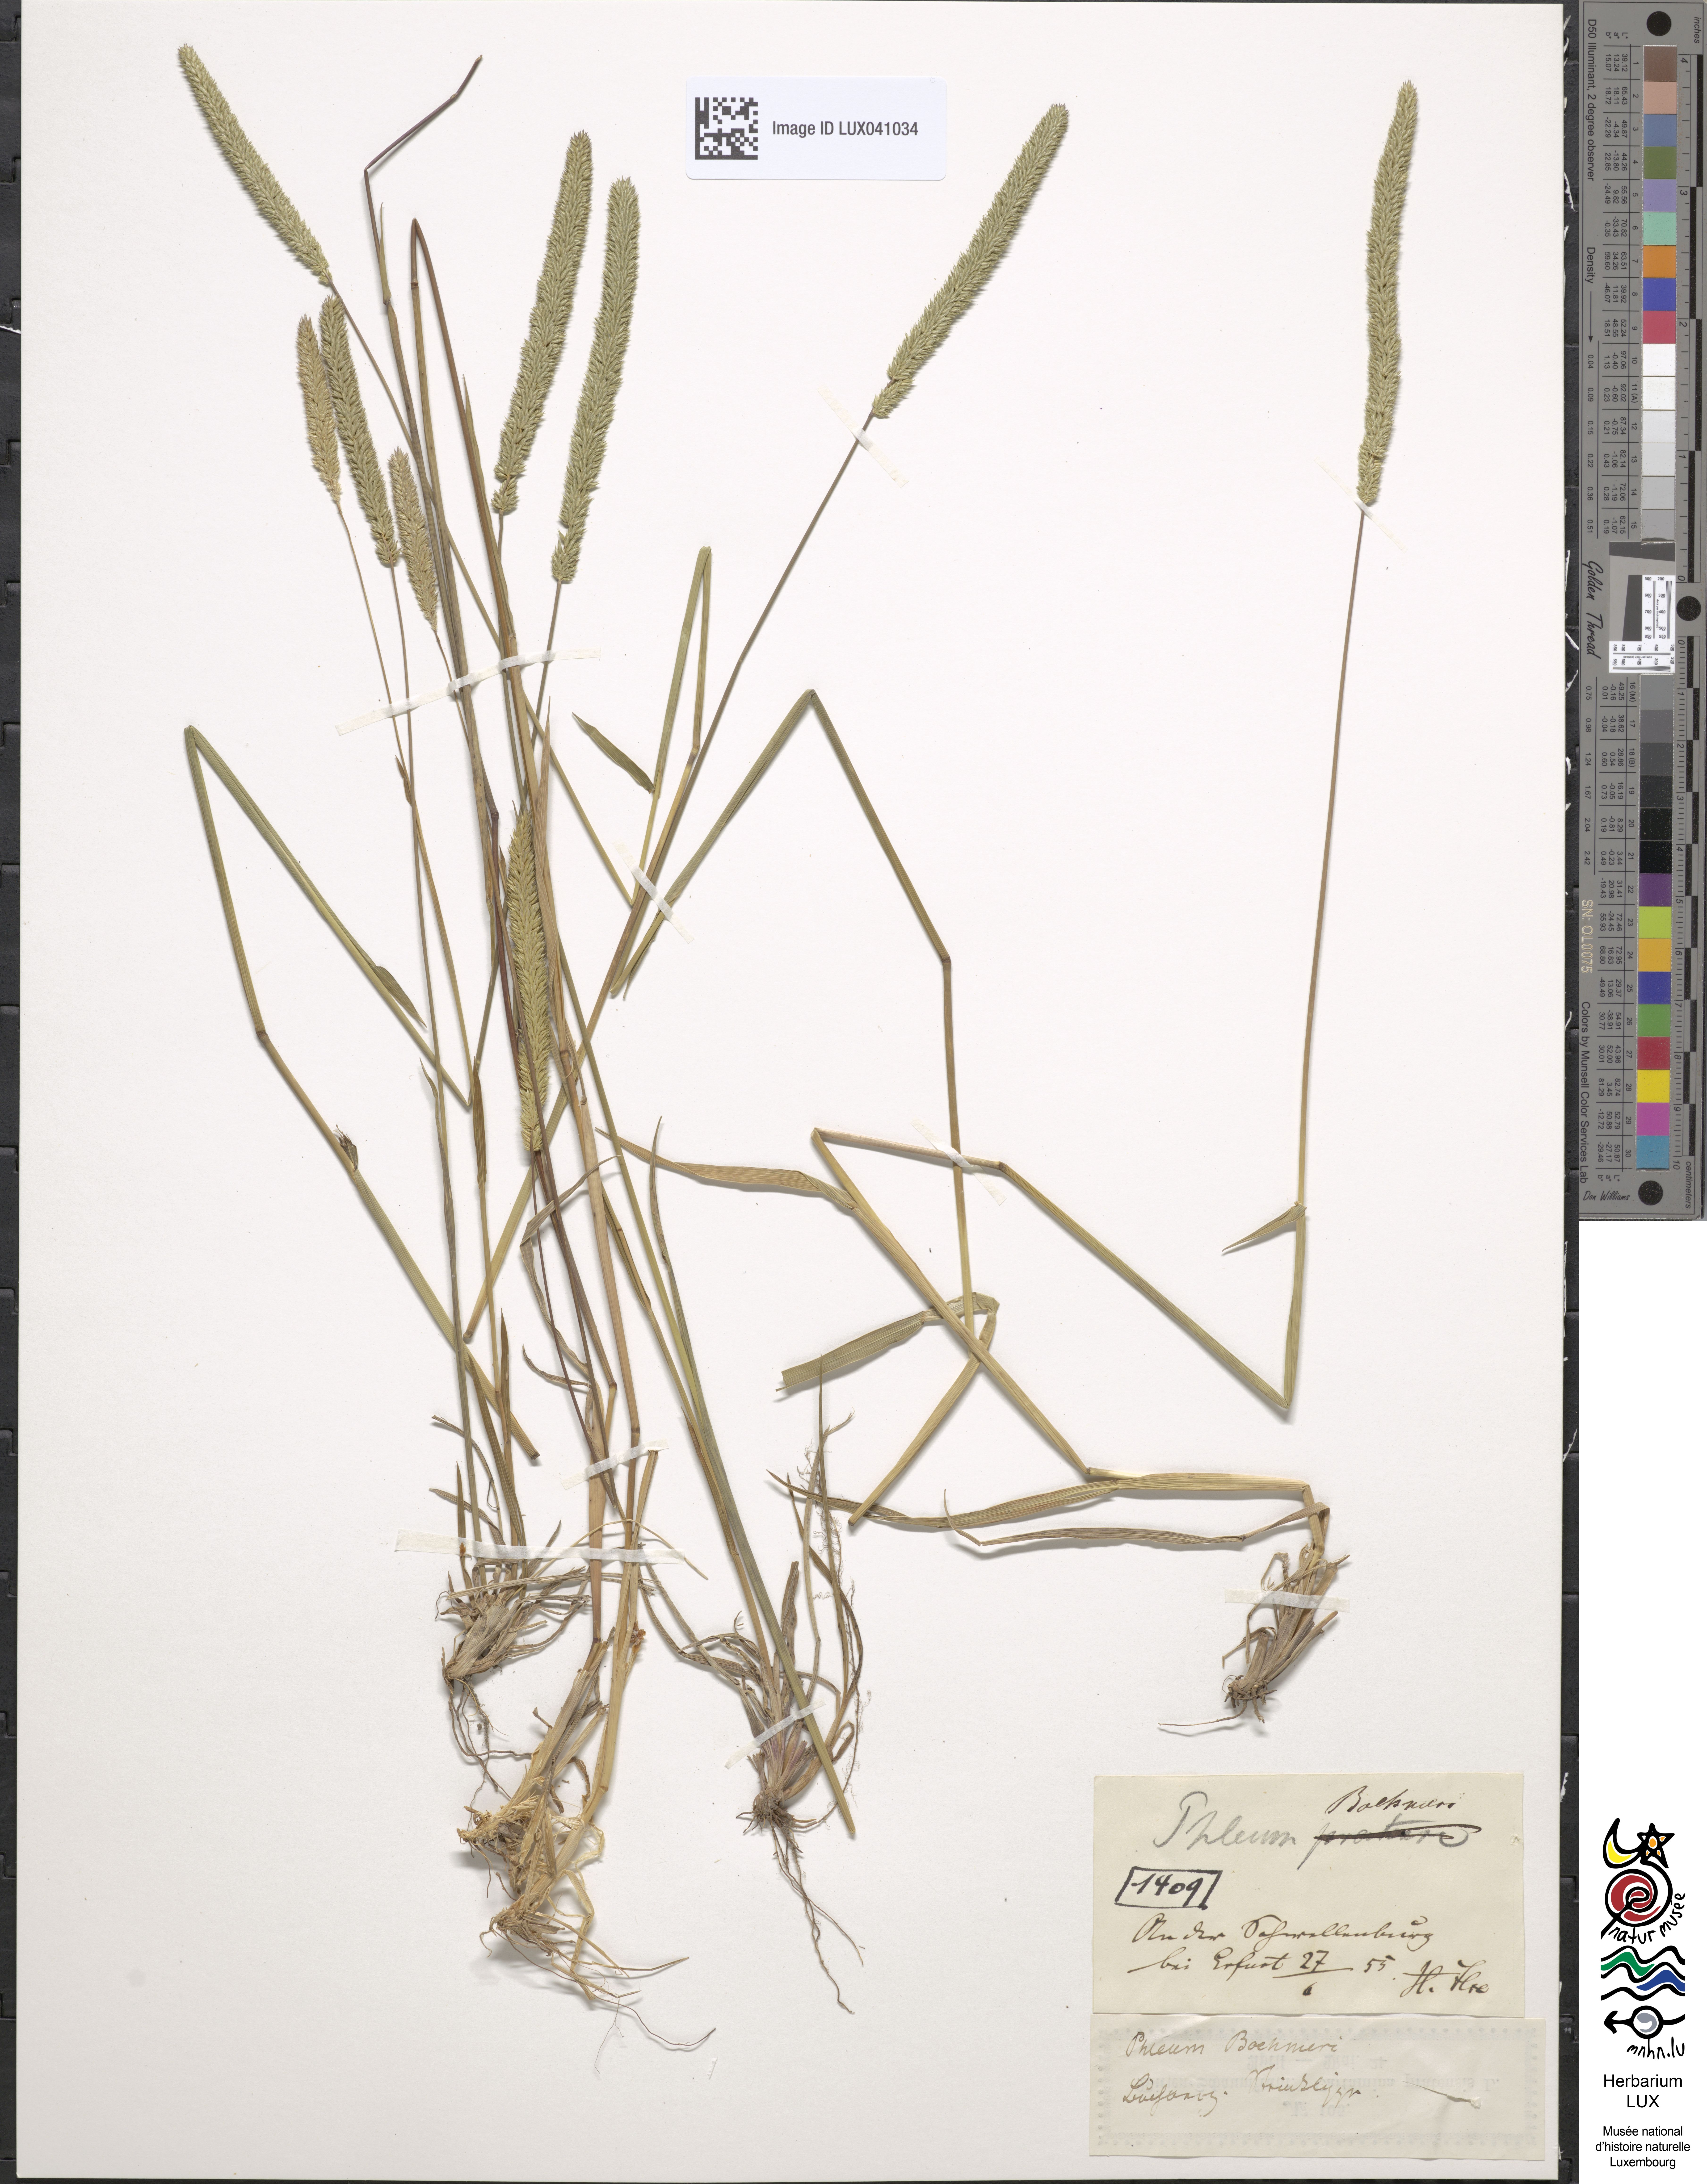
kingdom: Plantae
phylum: Tracheophyta
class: Liliopsida
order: Poales
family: Poaceae
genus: Phleum
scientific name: Phleum phleoides
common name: Purple-stem cat's-tail
